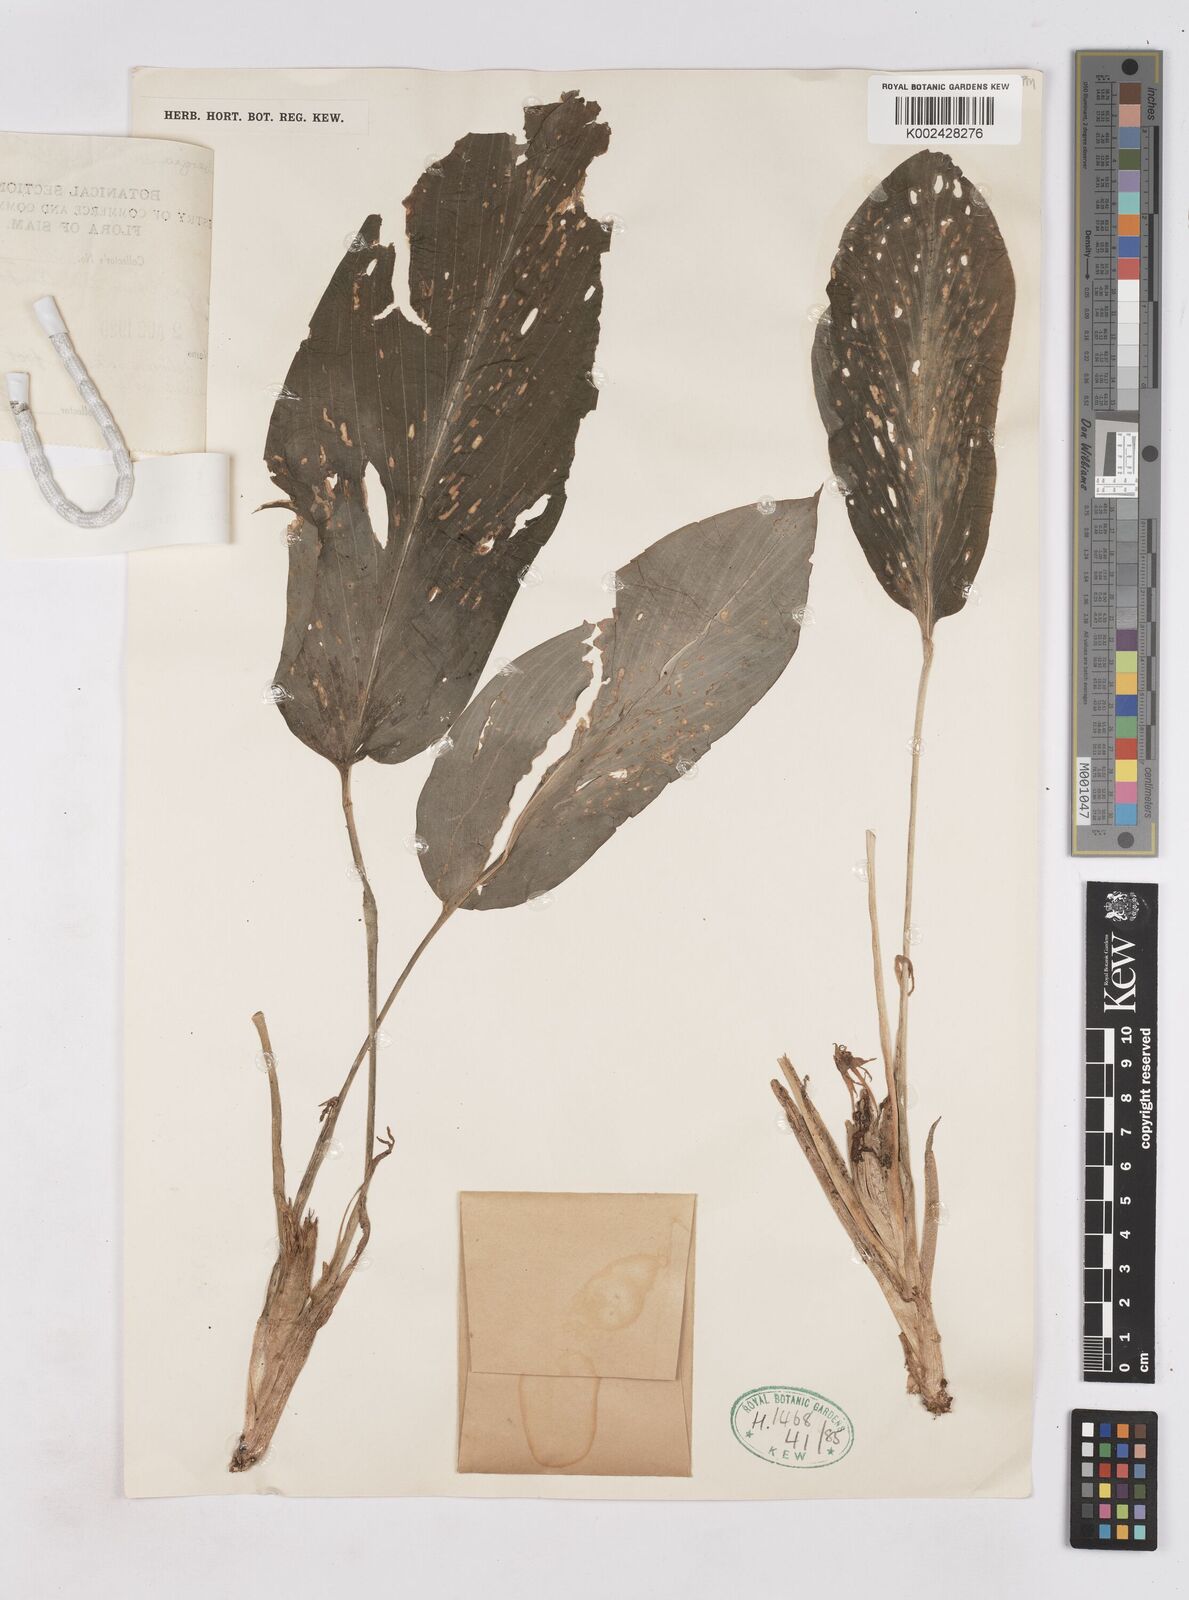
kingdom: Plantae
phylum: Tracheophyta
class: Liliopsida
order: Zingiberales
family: Zingiberaceae
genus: Boesenbergia
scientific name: Boesenbergia curtisii
